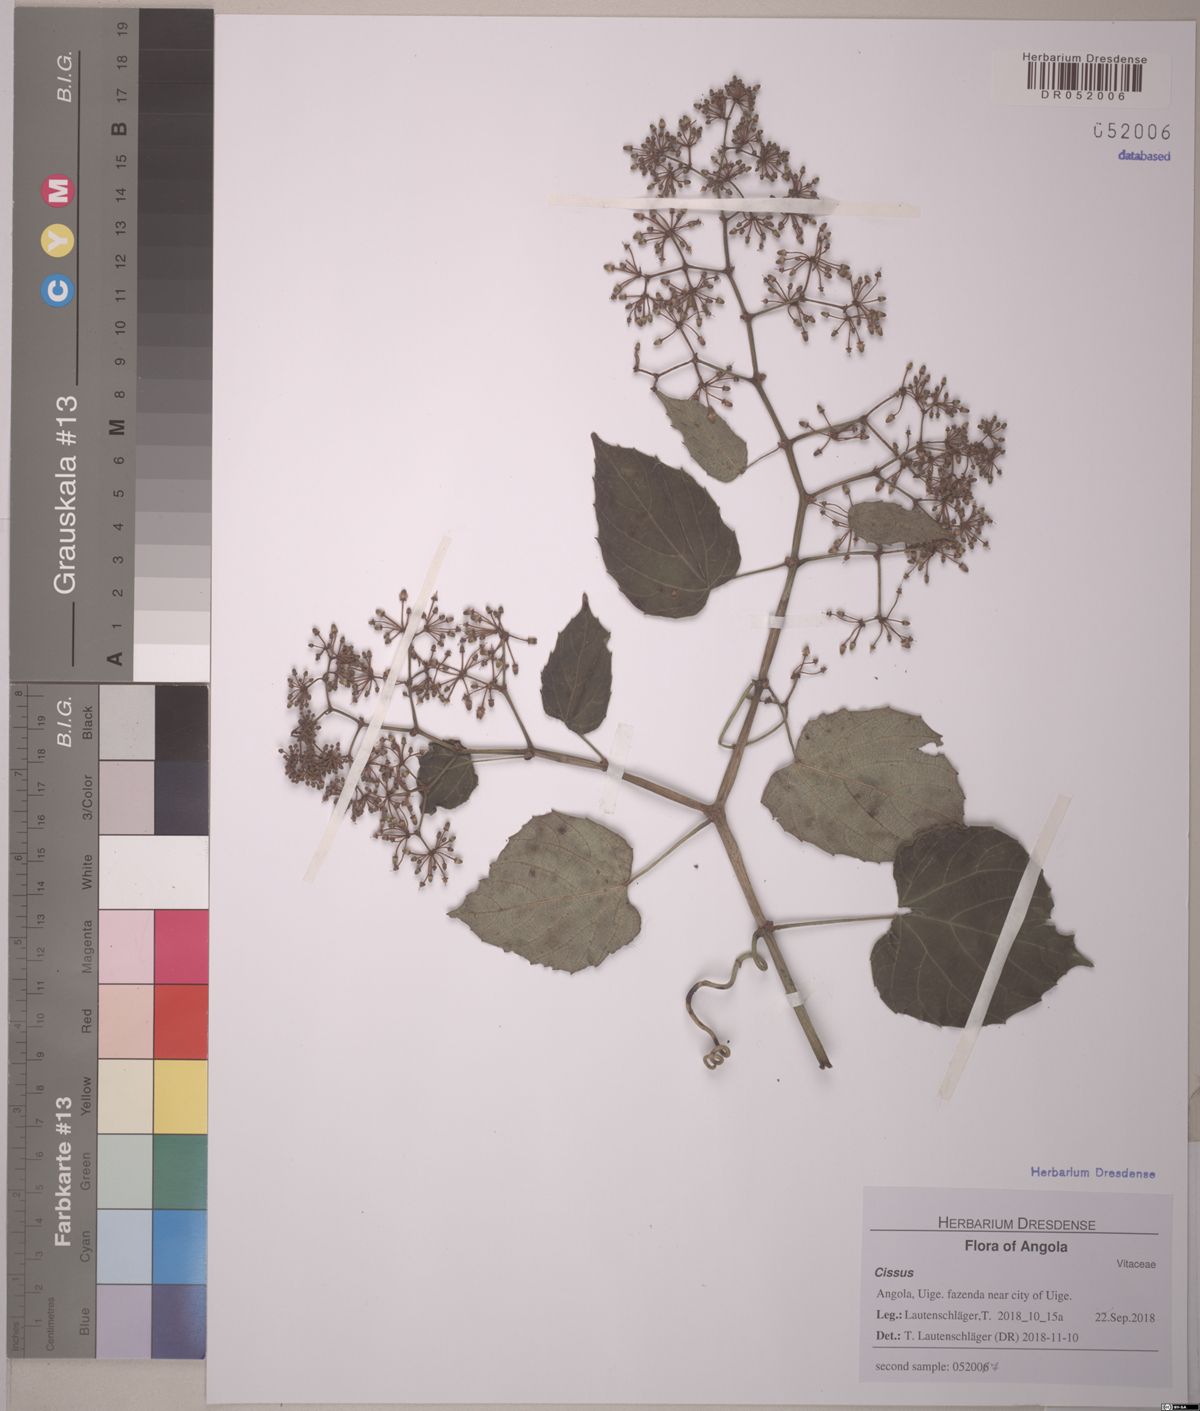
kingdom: Plantae
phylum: Tracheophyta
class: Magnoliopsida
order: Vitales
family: Vitaceae
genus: Cissus
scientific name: Cissus
